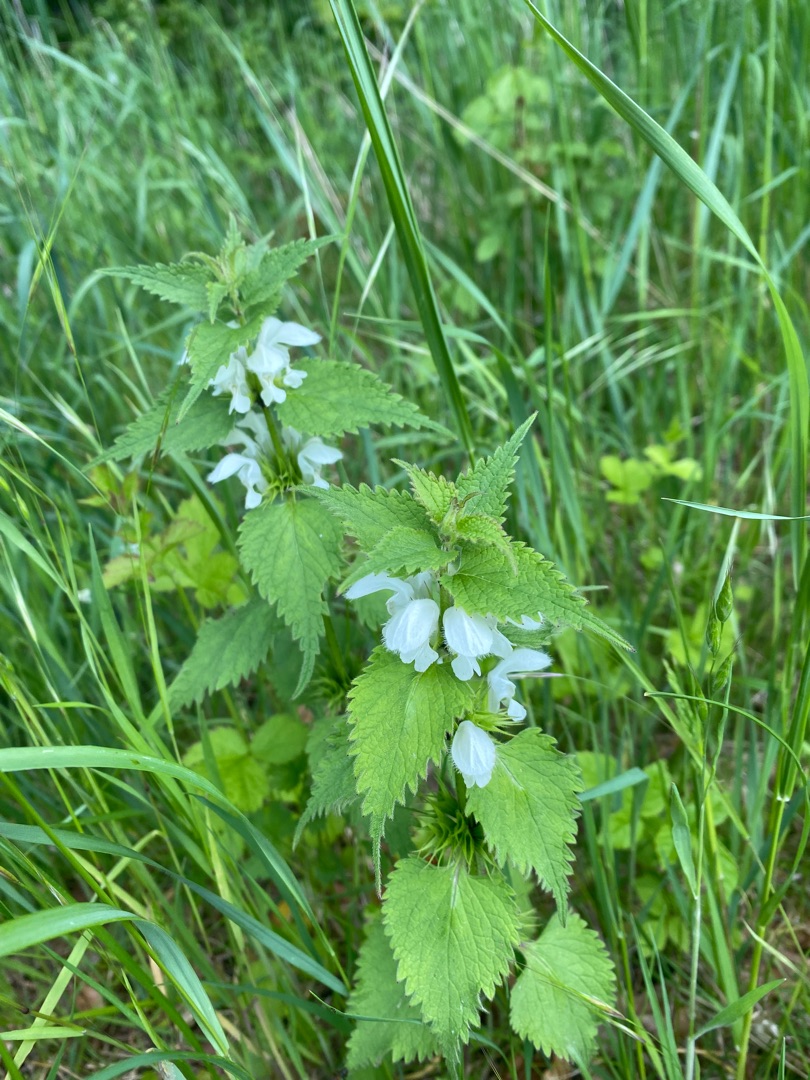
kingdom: Plantae
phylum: Tracheophyta
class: Magnoliopsida
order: Lamiales
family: Lamiaceae
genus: Lamium
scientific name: Lamium album
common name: Døvnælde
